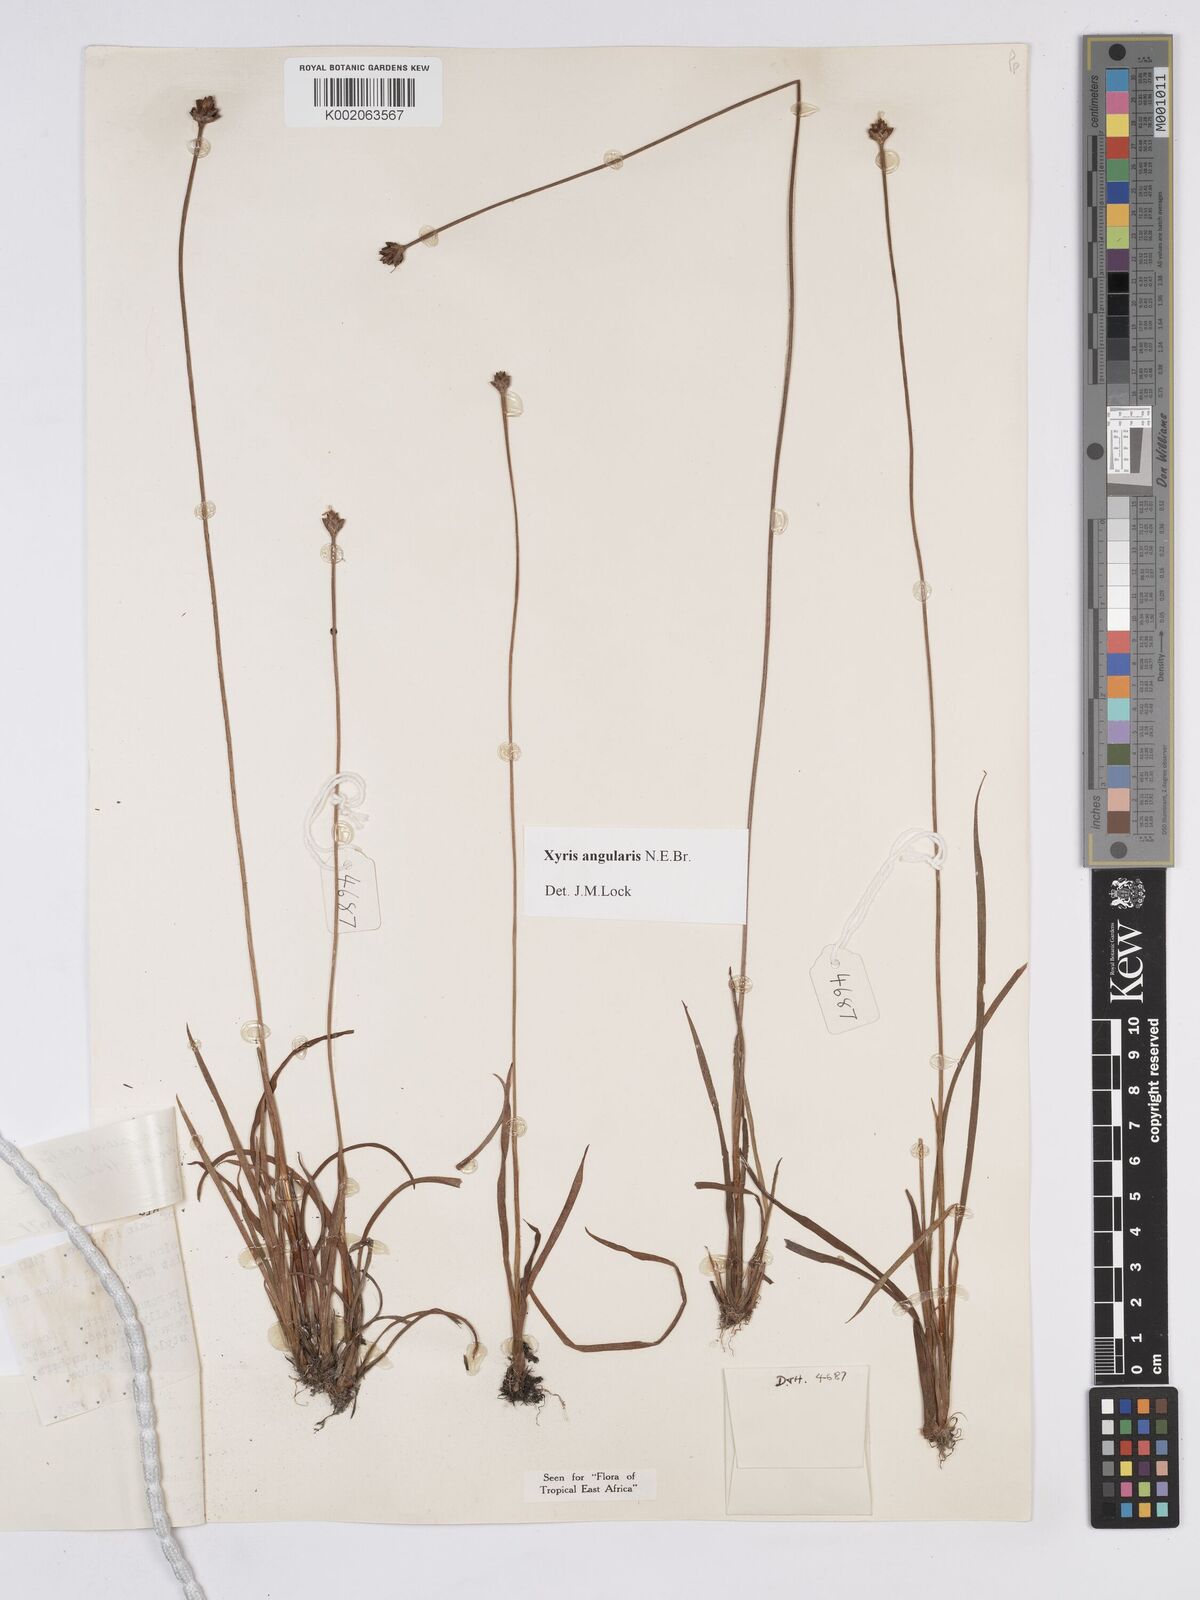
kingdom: Plantae
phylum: Tracheophyta
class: Liliopsida
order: Poales
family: Xyridaceae
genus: Xyris
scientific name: Xyris angularis
